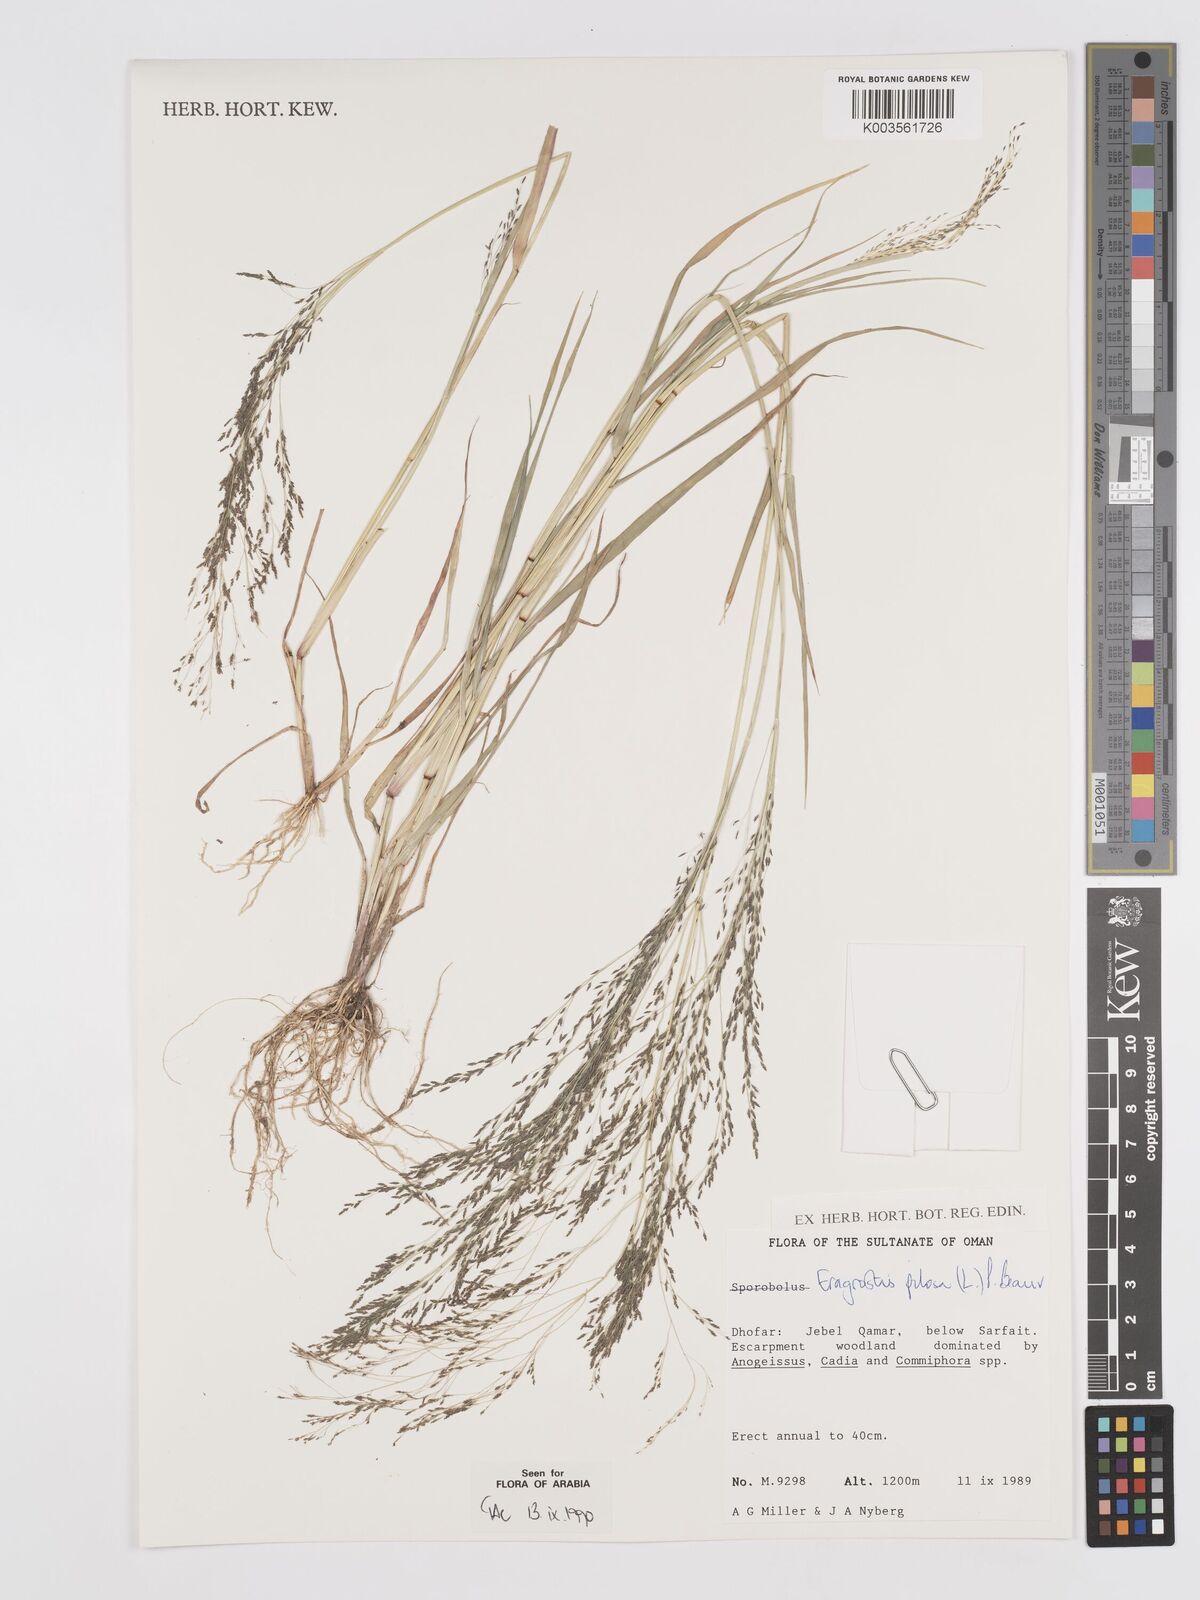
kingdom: Plantae
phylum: Tracheophyta
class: Liliopsida
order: Poales
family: Poaceae
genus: Eragrostis
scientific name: Eragrostis pilosa
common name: Indian lovegrass
